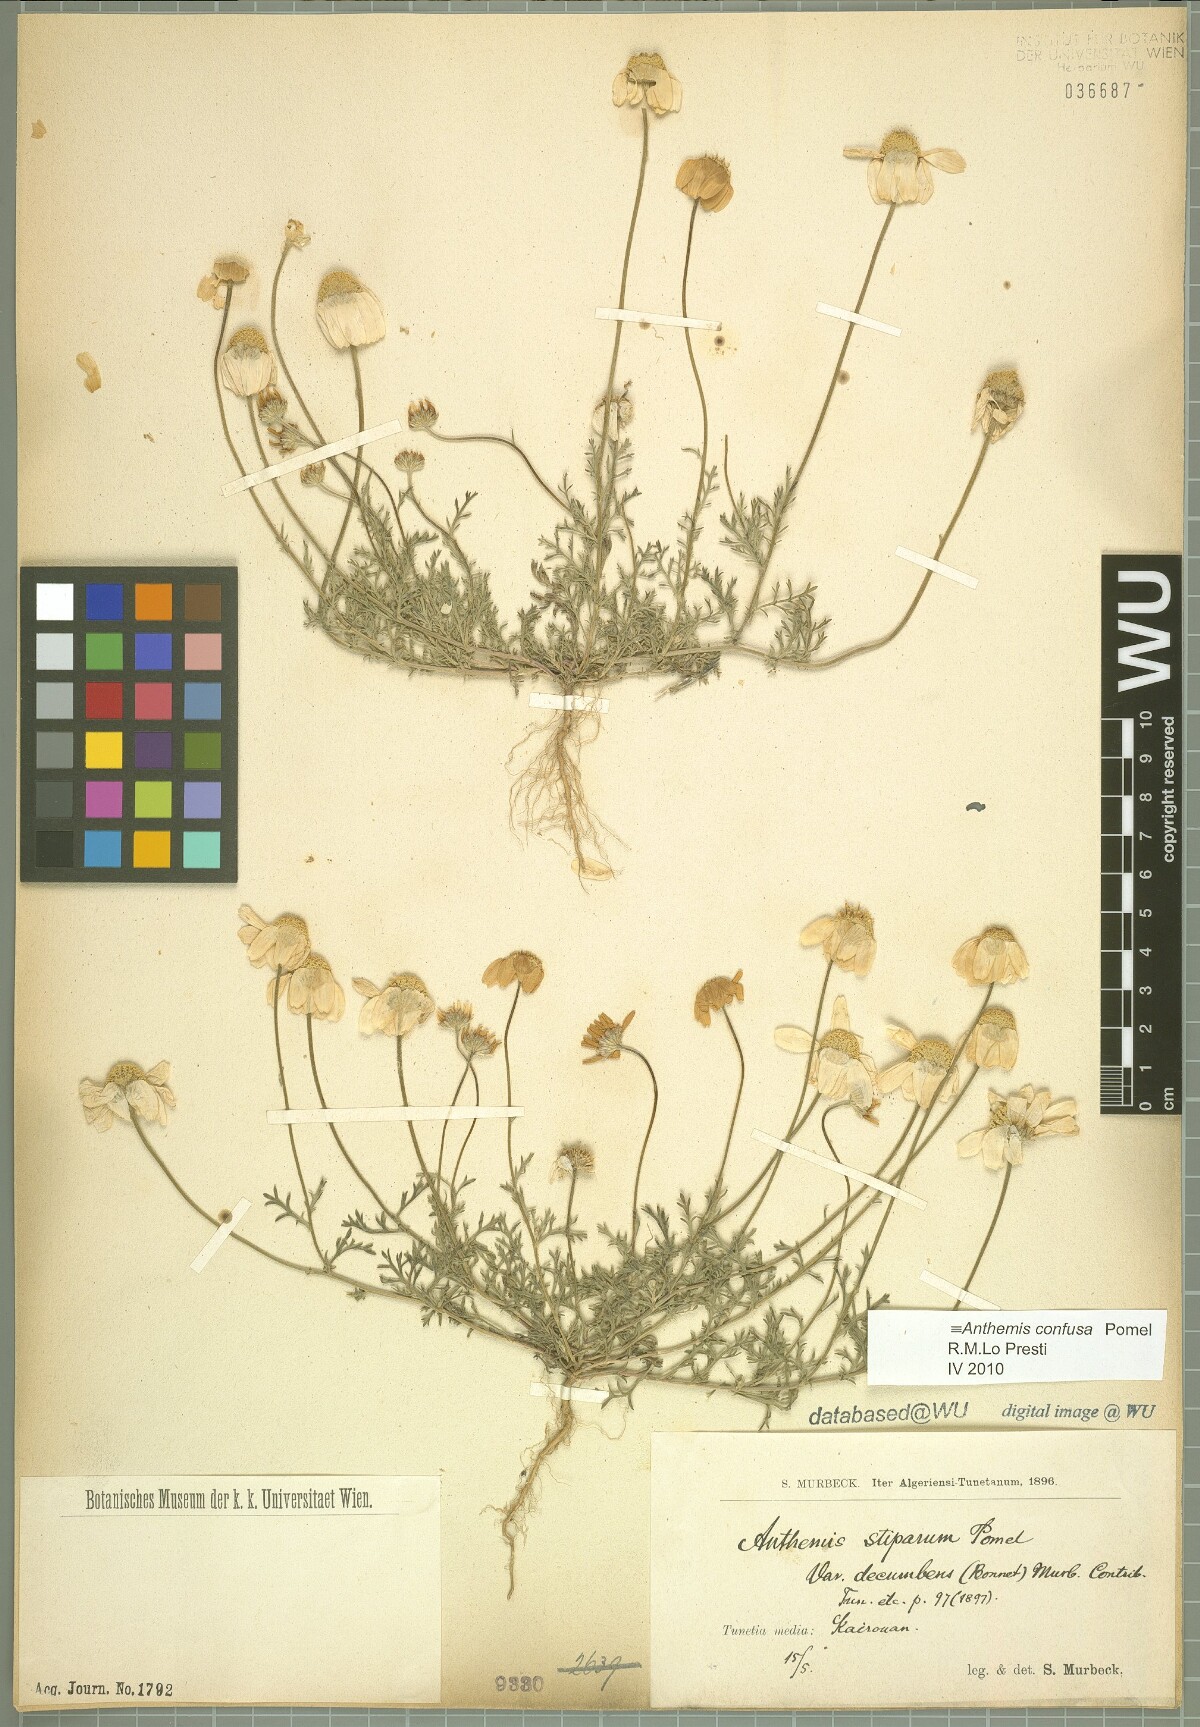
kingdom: Plantae
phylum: Tracheophyta
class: Magnoliopsida
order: Asterales
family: Asteraceae
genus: Anthemis
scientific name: Anthemis confusa
